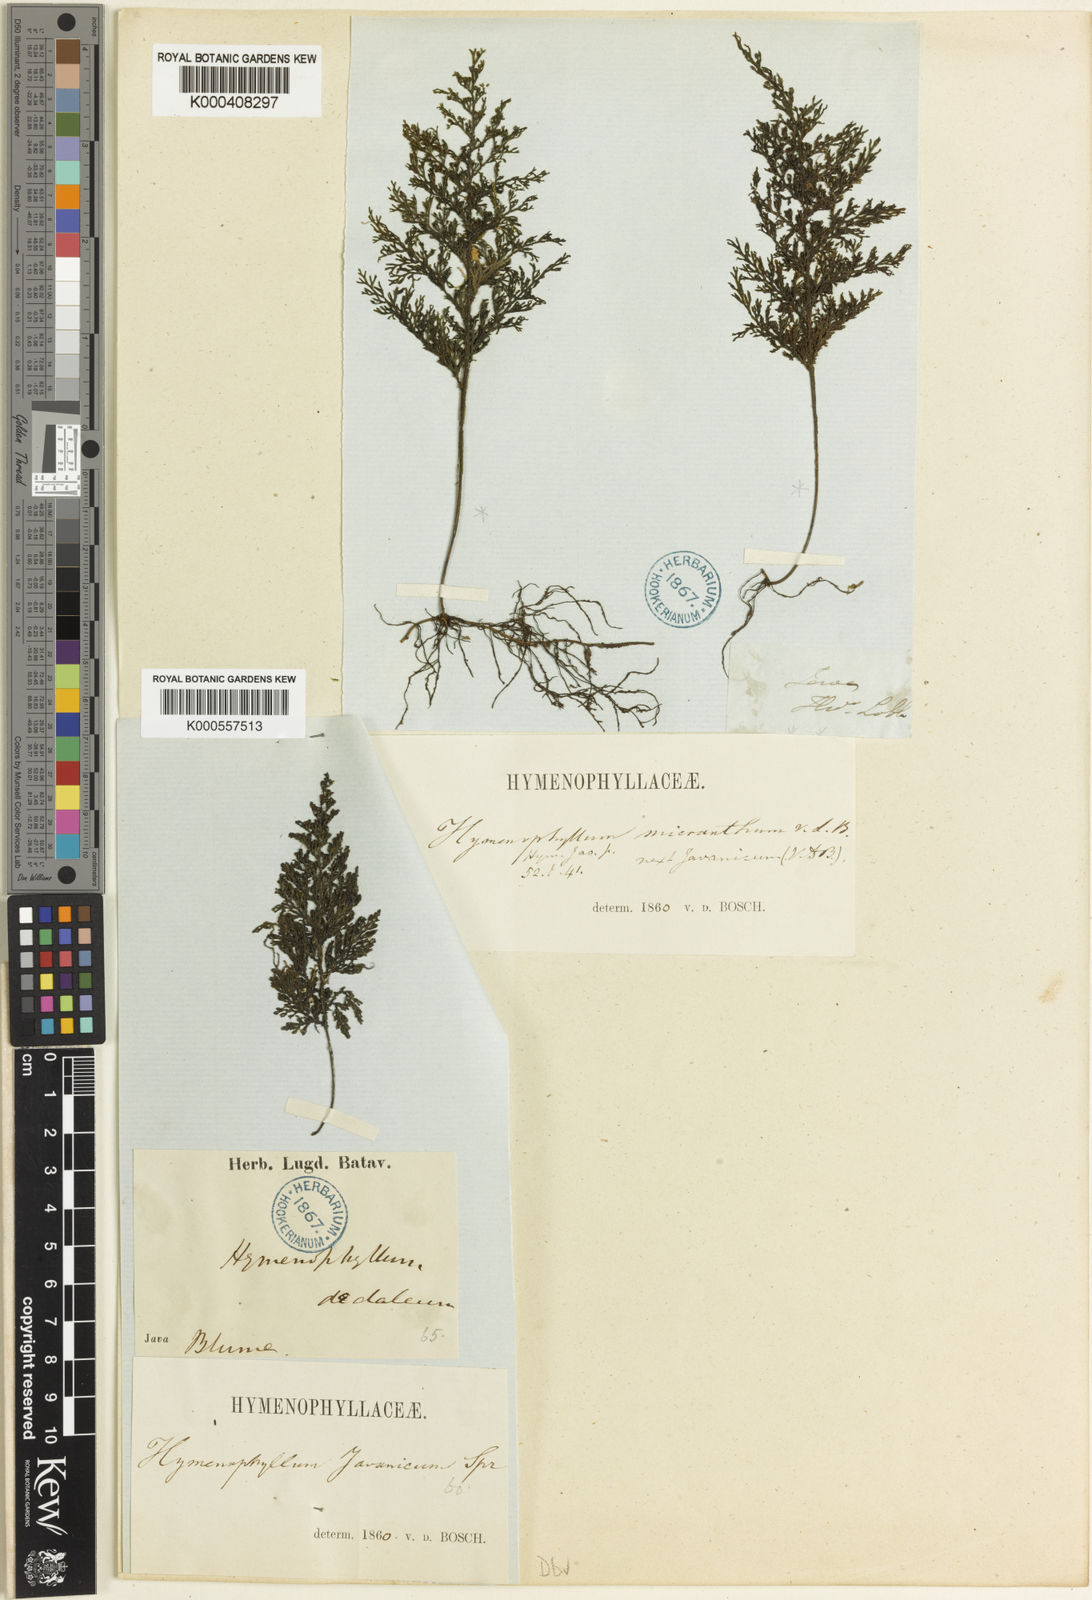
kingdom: Plantae
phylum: Tracheophyta
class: Polypodiopsida
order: Hymenophyllales
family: Hymenophyllaceae
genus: Hymenophyllum
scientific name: Hymenophyllum javanicum
